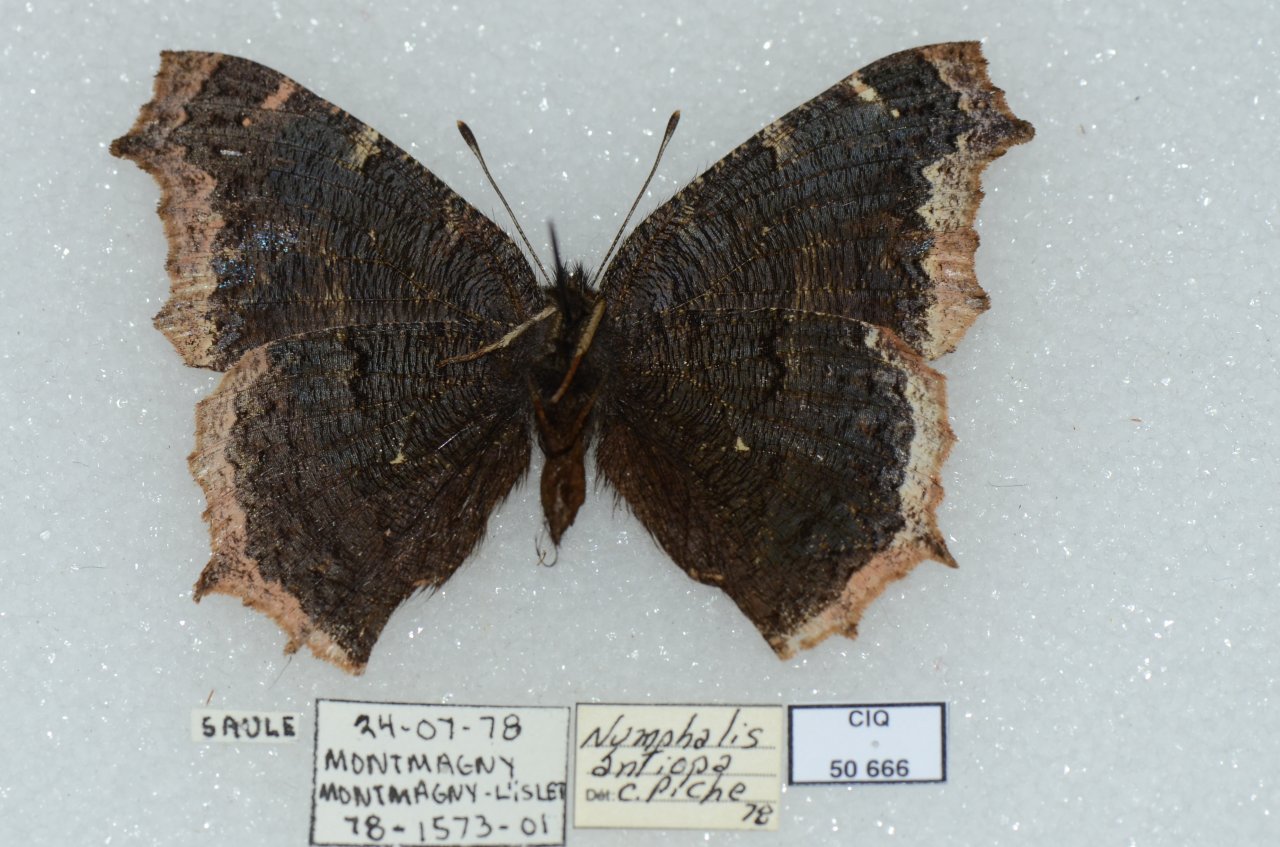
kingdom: Animalia
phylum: Arthropoda
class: Insecta
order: Lepidoptera
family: Nymphalidae
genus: Nymphalis
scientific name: Nymphalis antiopa
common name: Mourning Cloak
